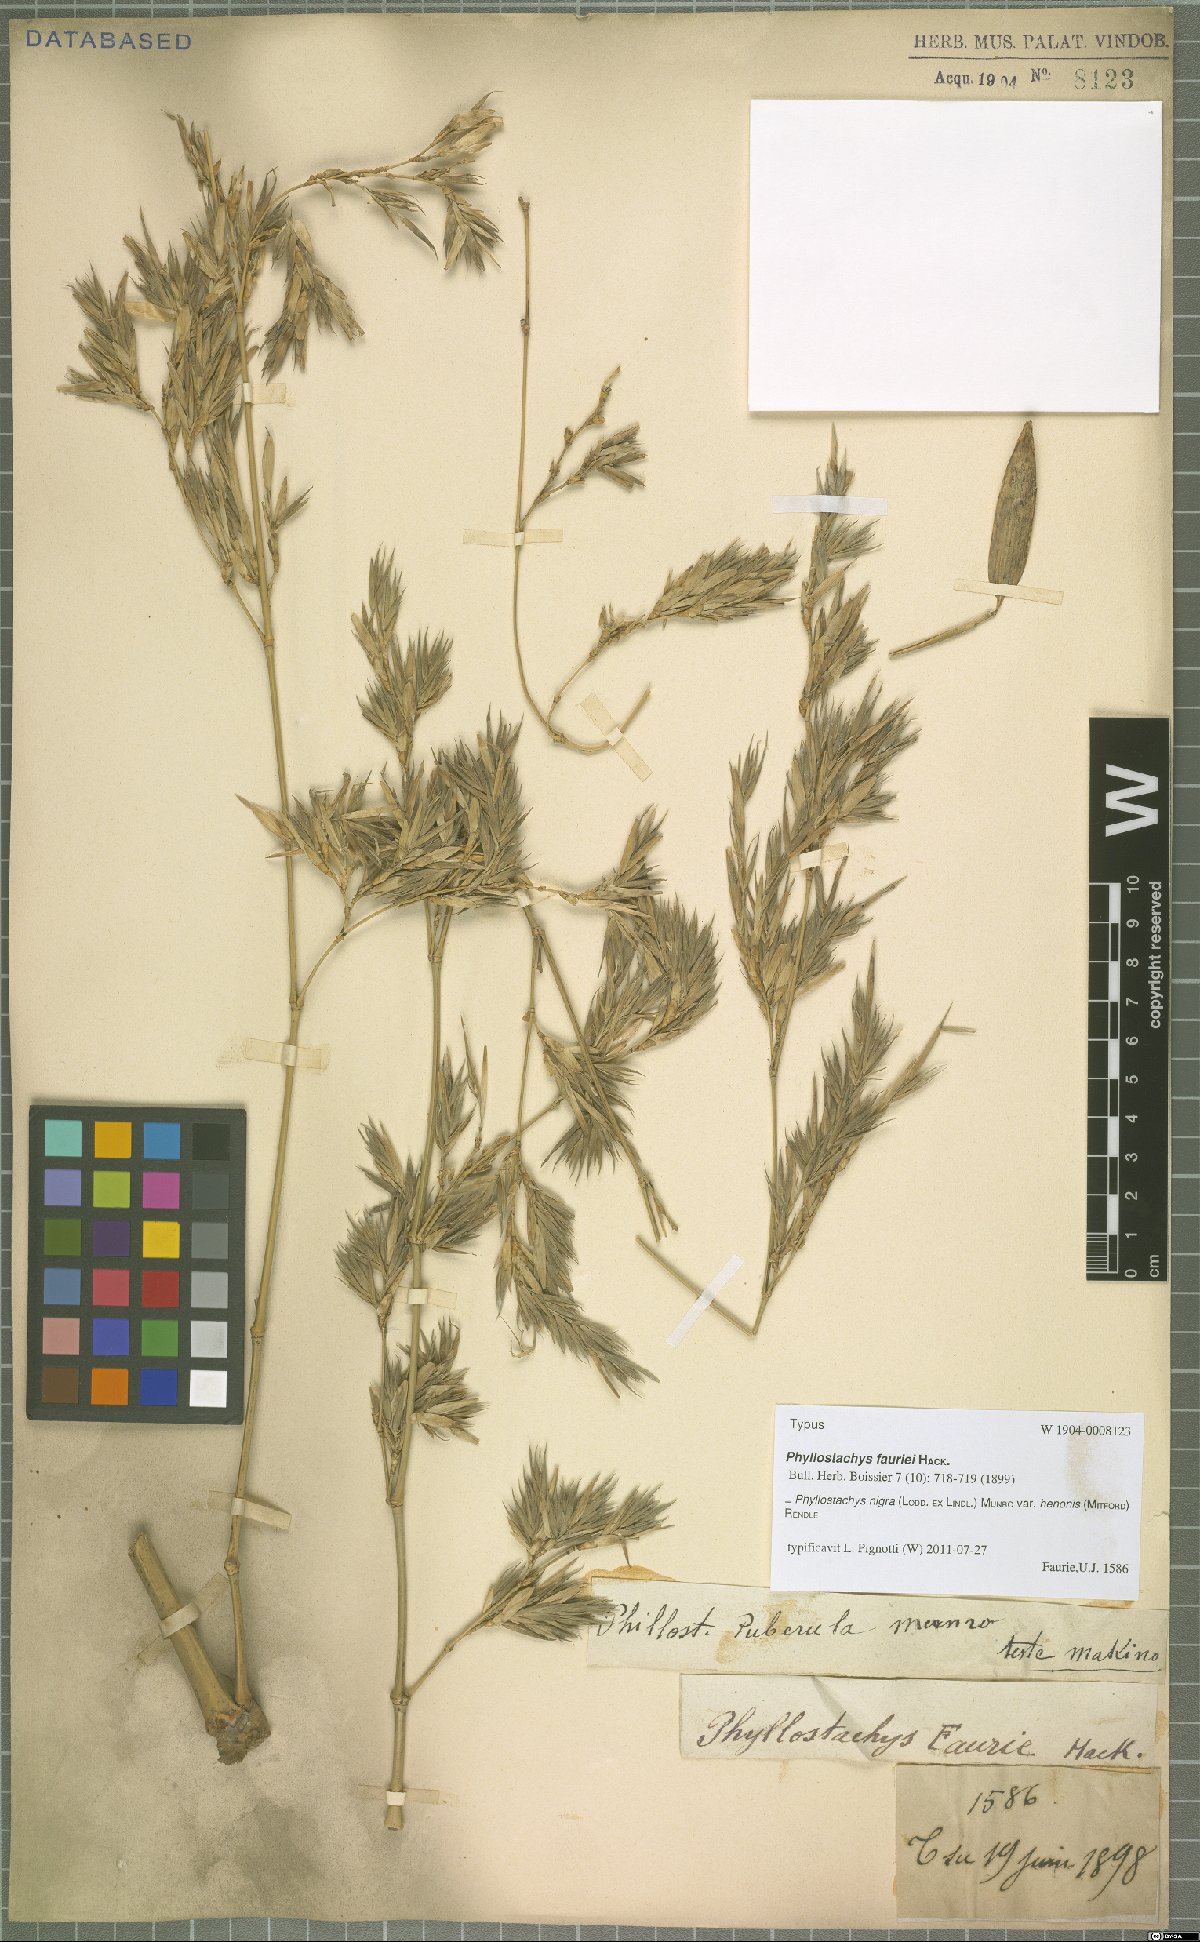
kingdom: Plantae
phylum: Tracheophyta
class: Liliopsida
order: Poales
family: Poaceae
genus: Phyllostachys
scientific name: Phyllostachys nigra
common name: Black bamboo
